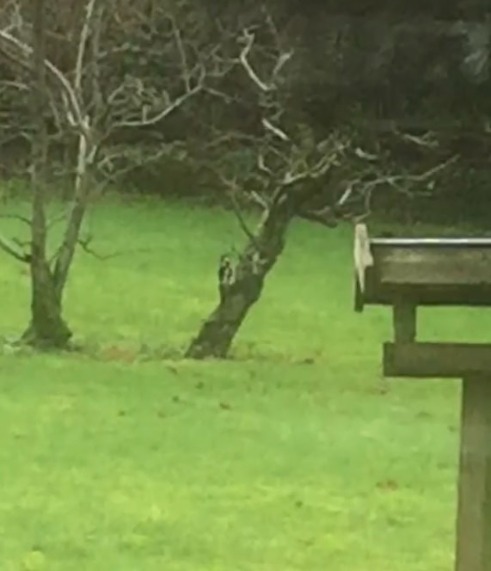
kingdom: Animalia
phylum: Chordata
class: Aves
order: Piciformes
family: Picidae
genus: Dendrocopos
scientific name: Dendrocopos major
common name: Stor flagspætte
